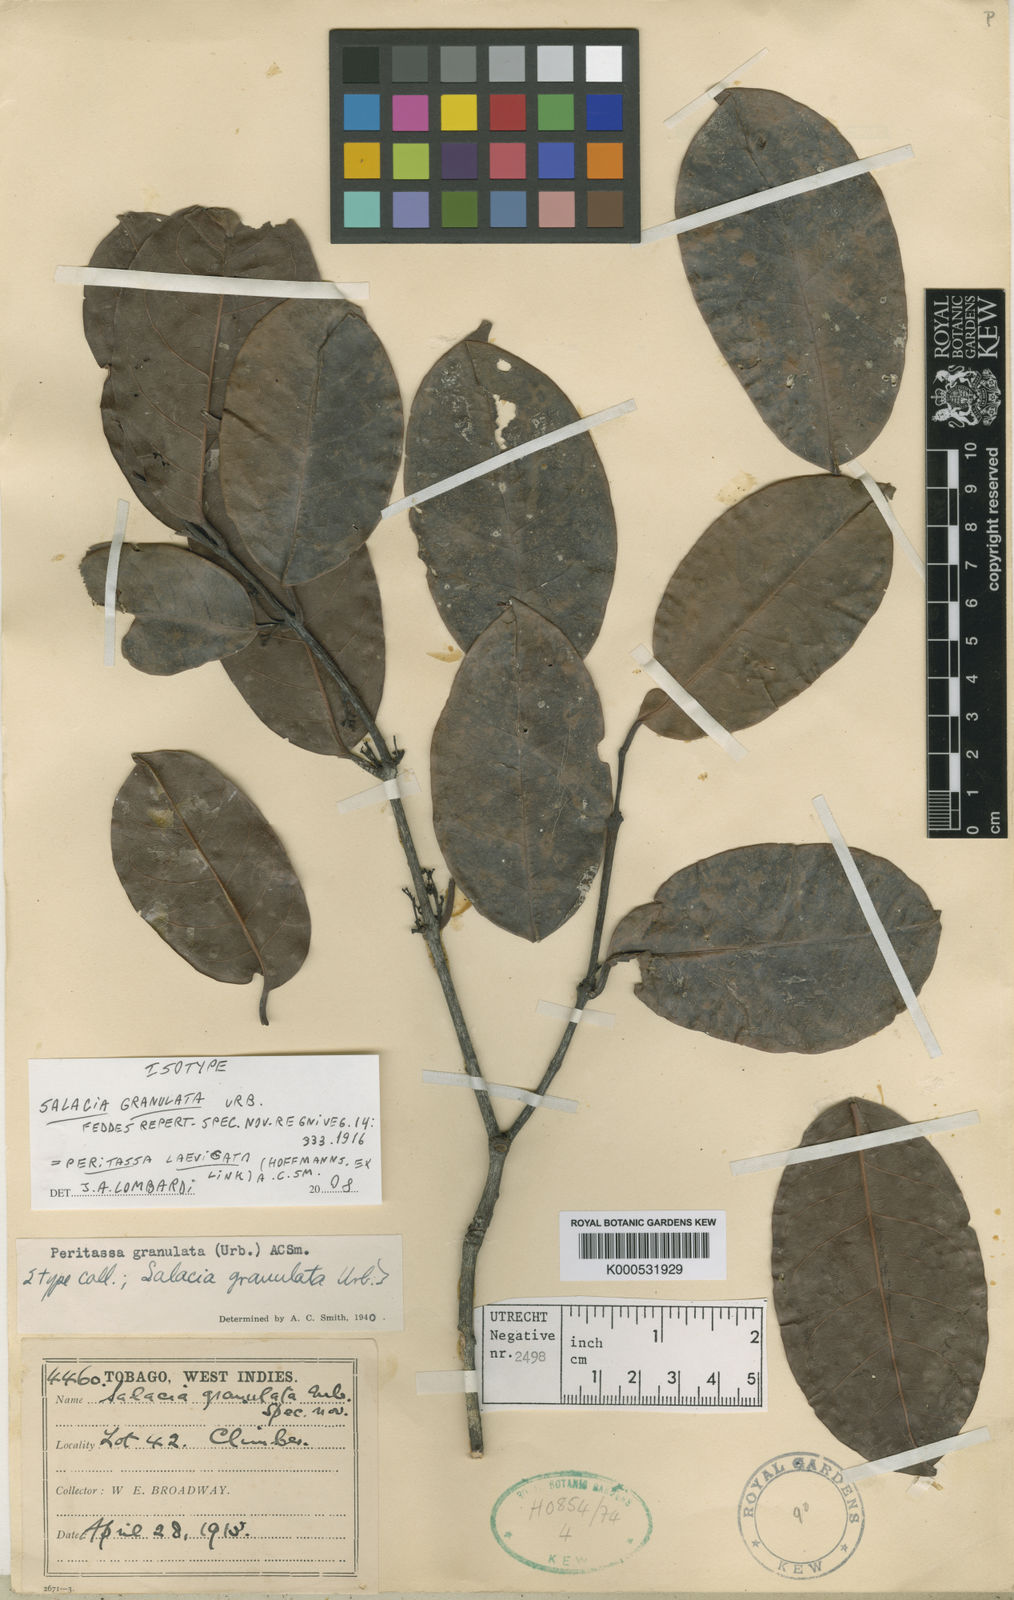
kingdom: Plantae
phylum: Tracheophyta
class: Magnoliopsida
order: Celastrales
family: Celastraceae
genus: Peritassa
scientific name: Peritassa laevigata
